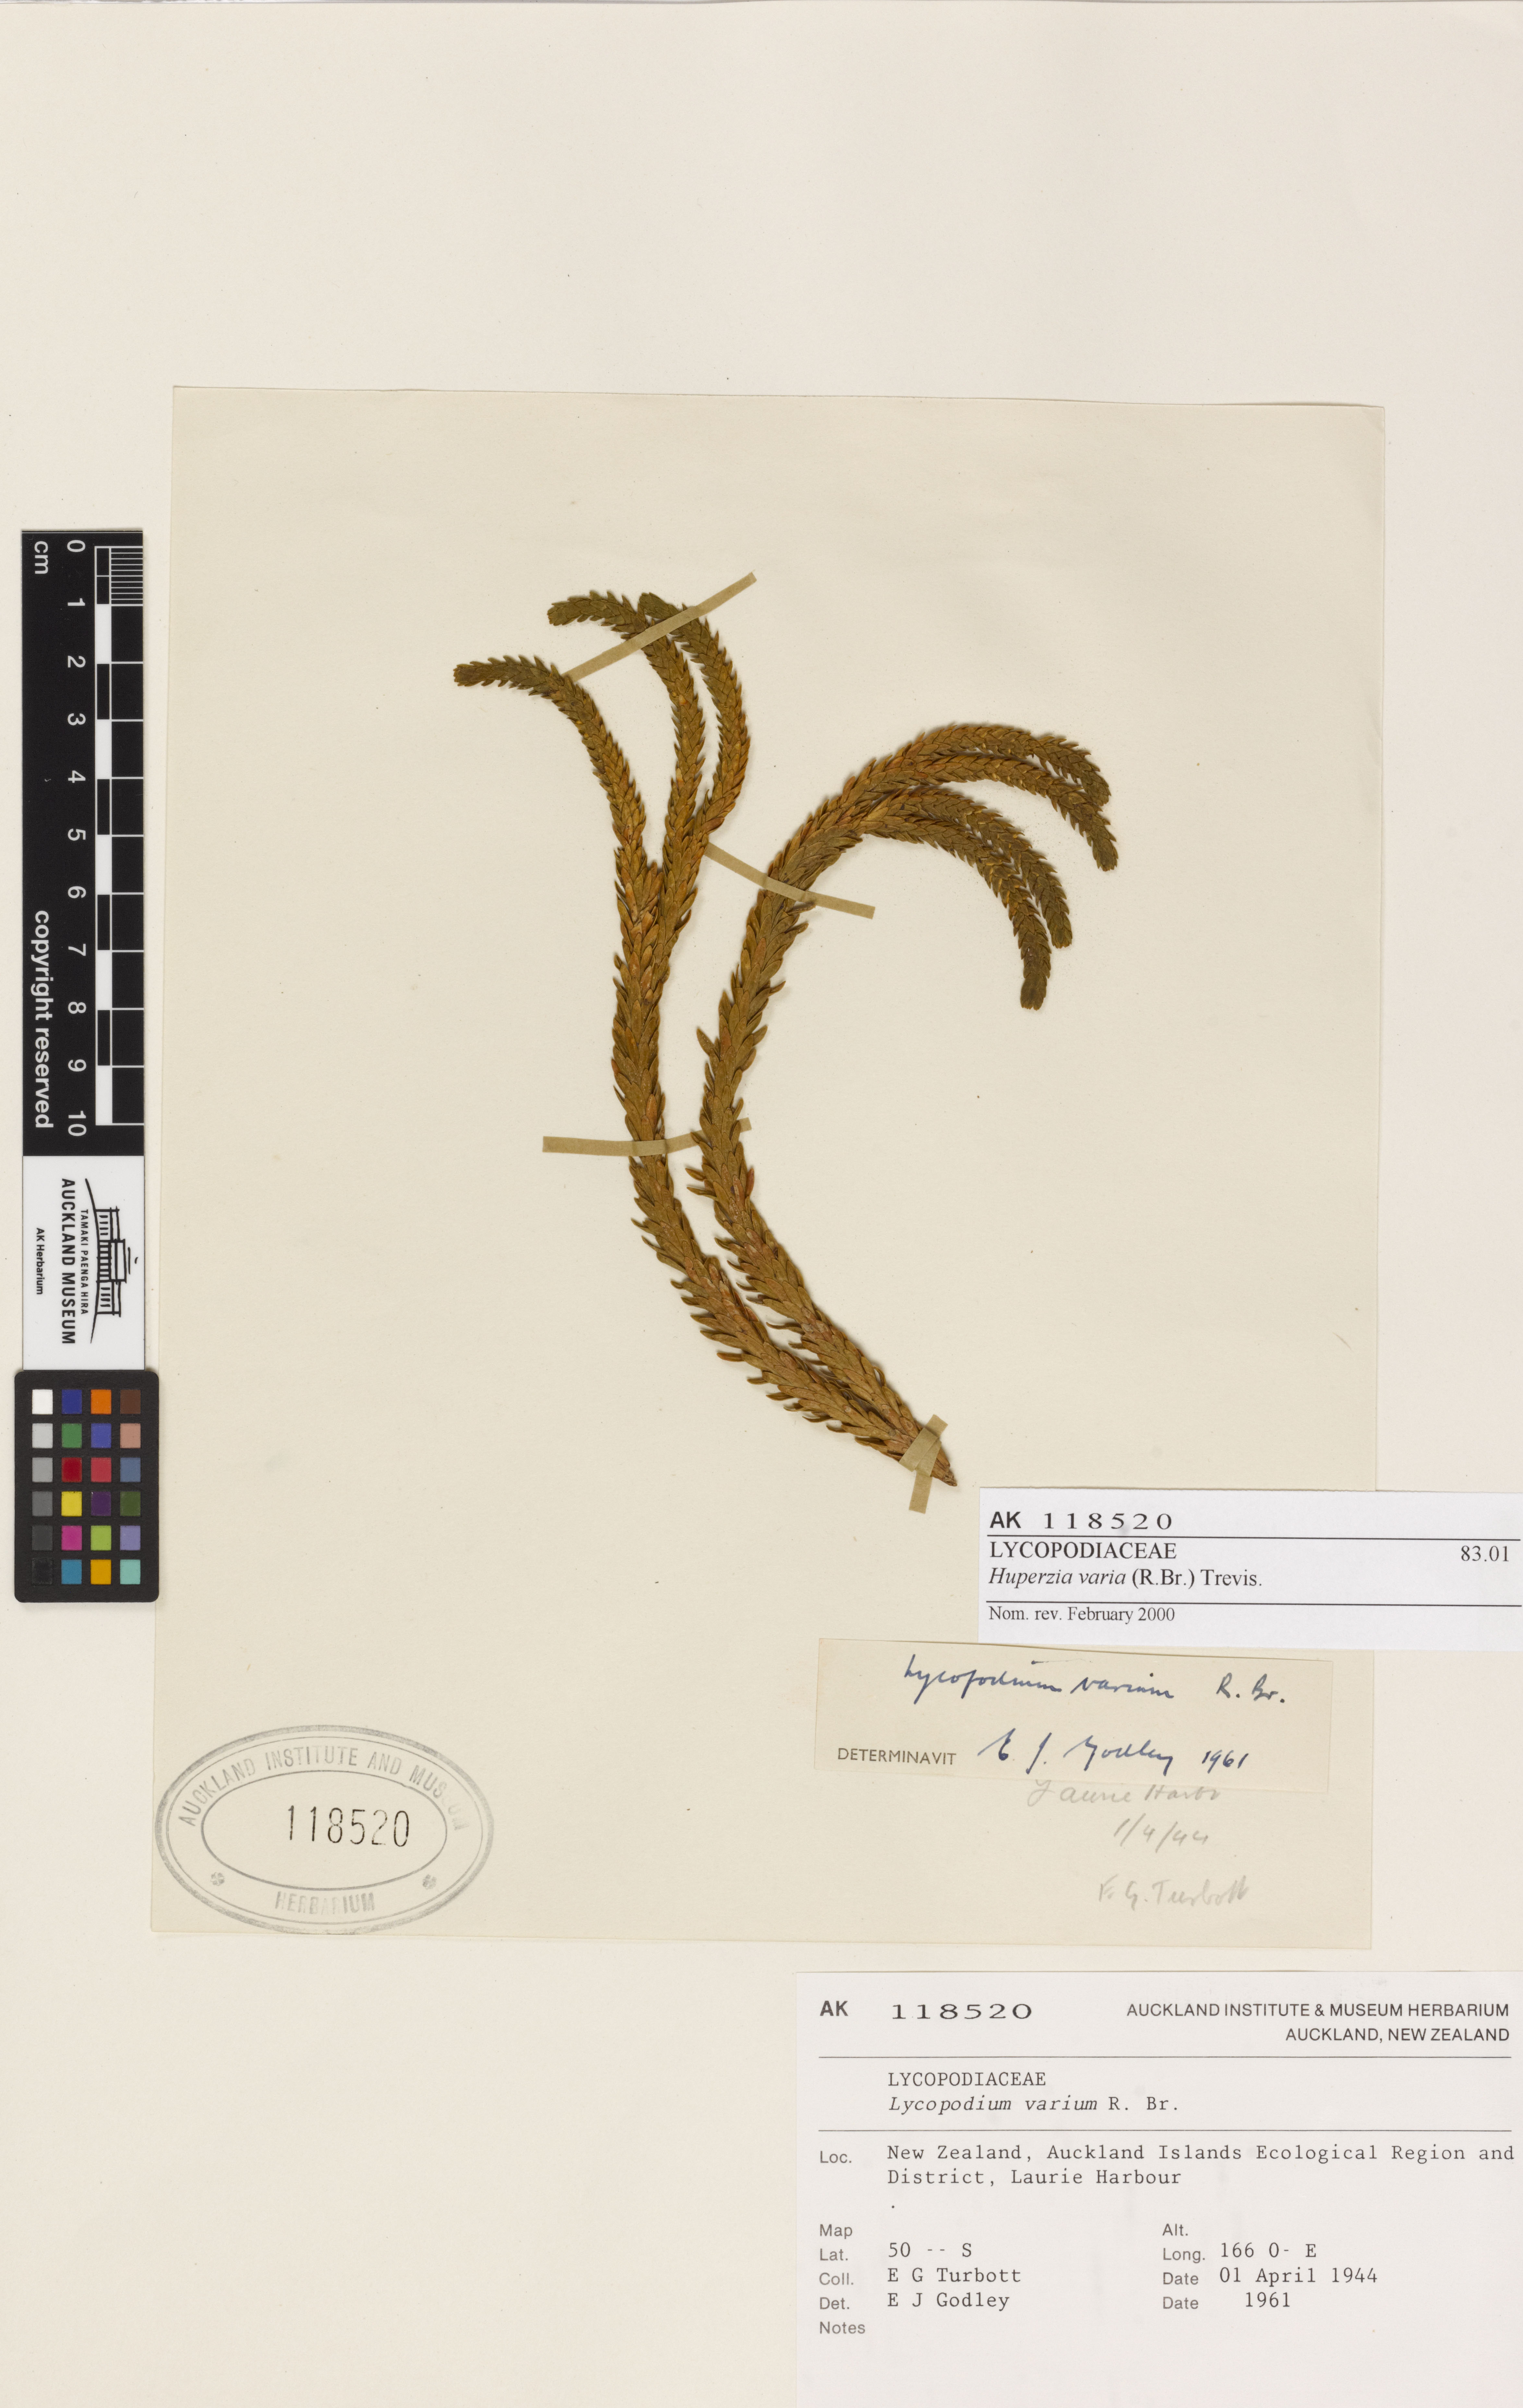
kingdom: Plantae
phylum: Tracheophyta
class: Lycopodiopsida
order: Lycopodiales
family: Lycopodiaceae
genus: Phlegmariurus
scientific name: Phlegmariurus varius
